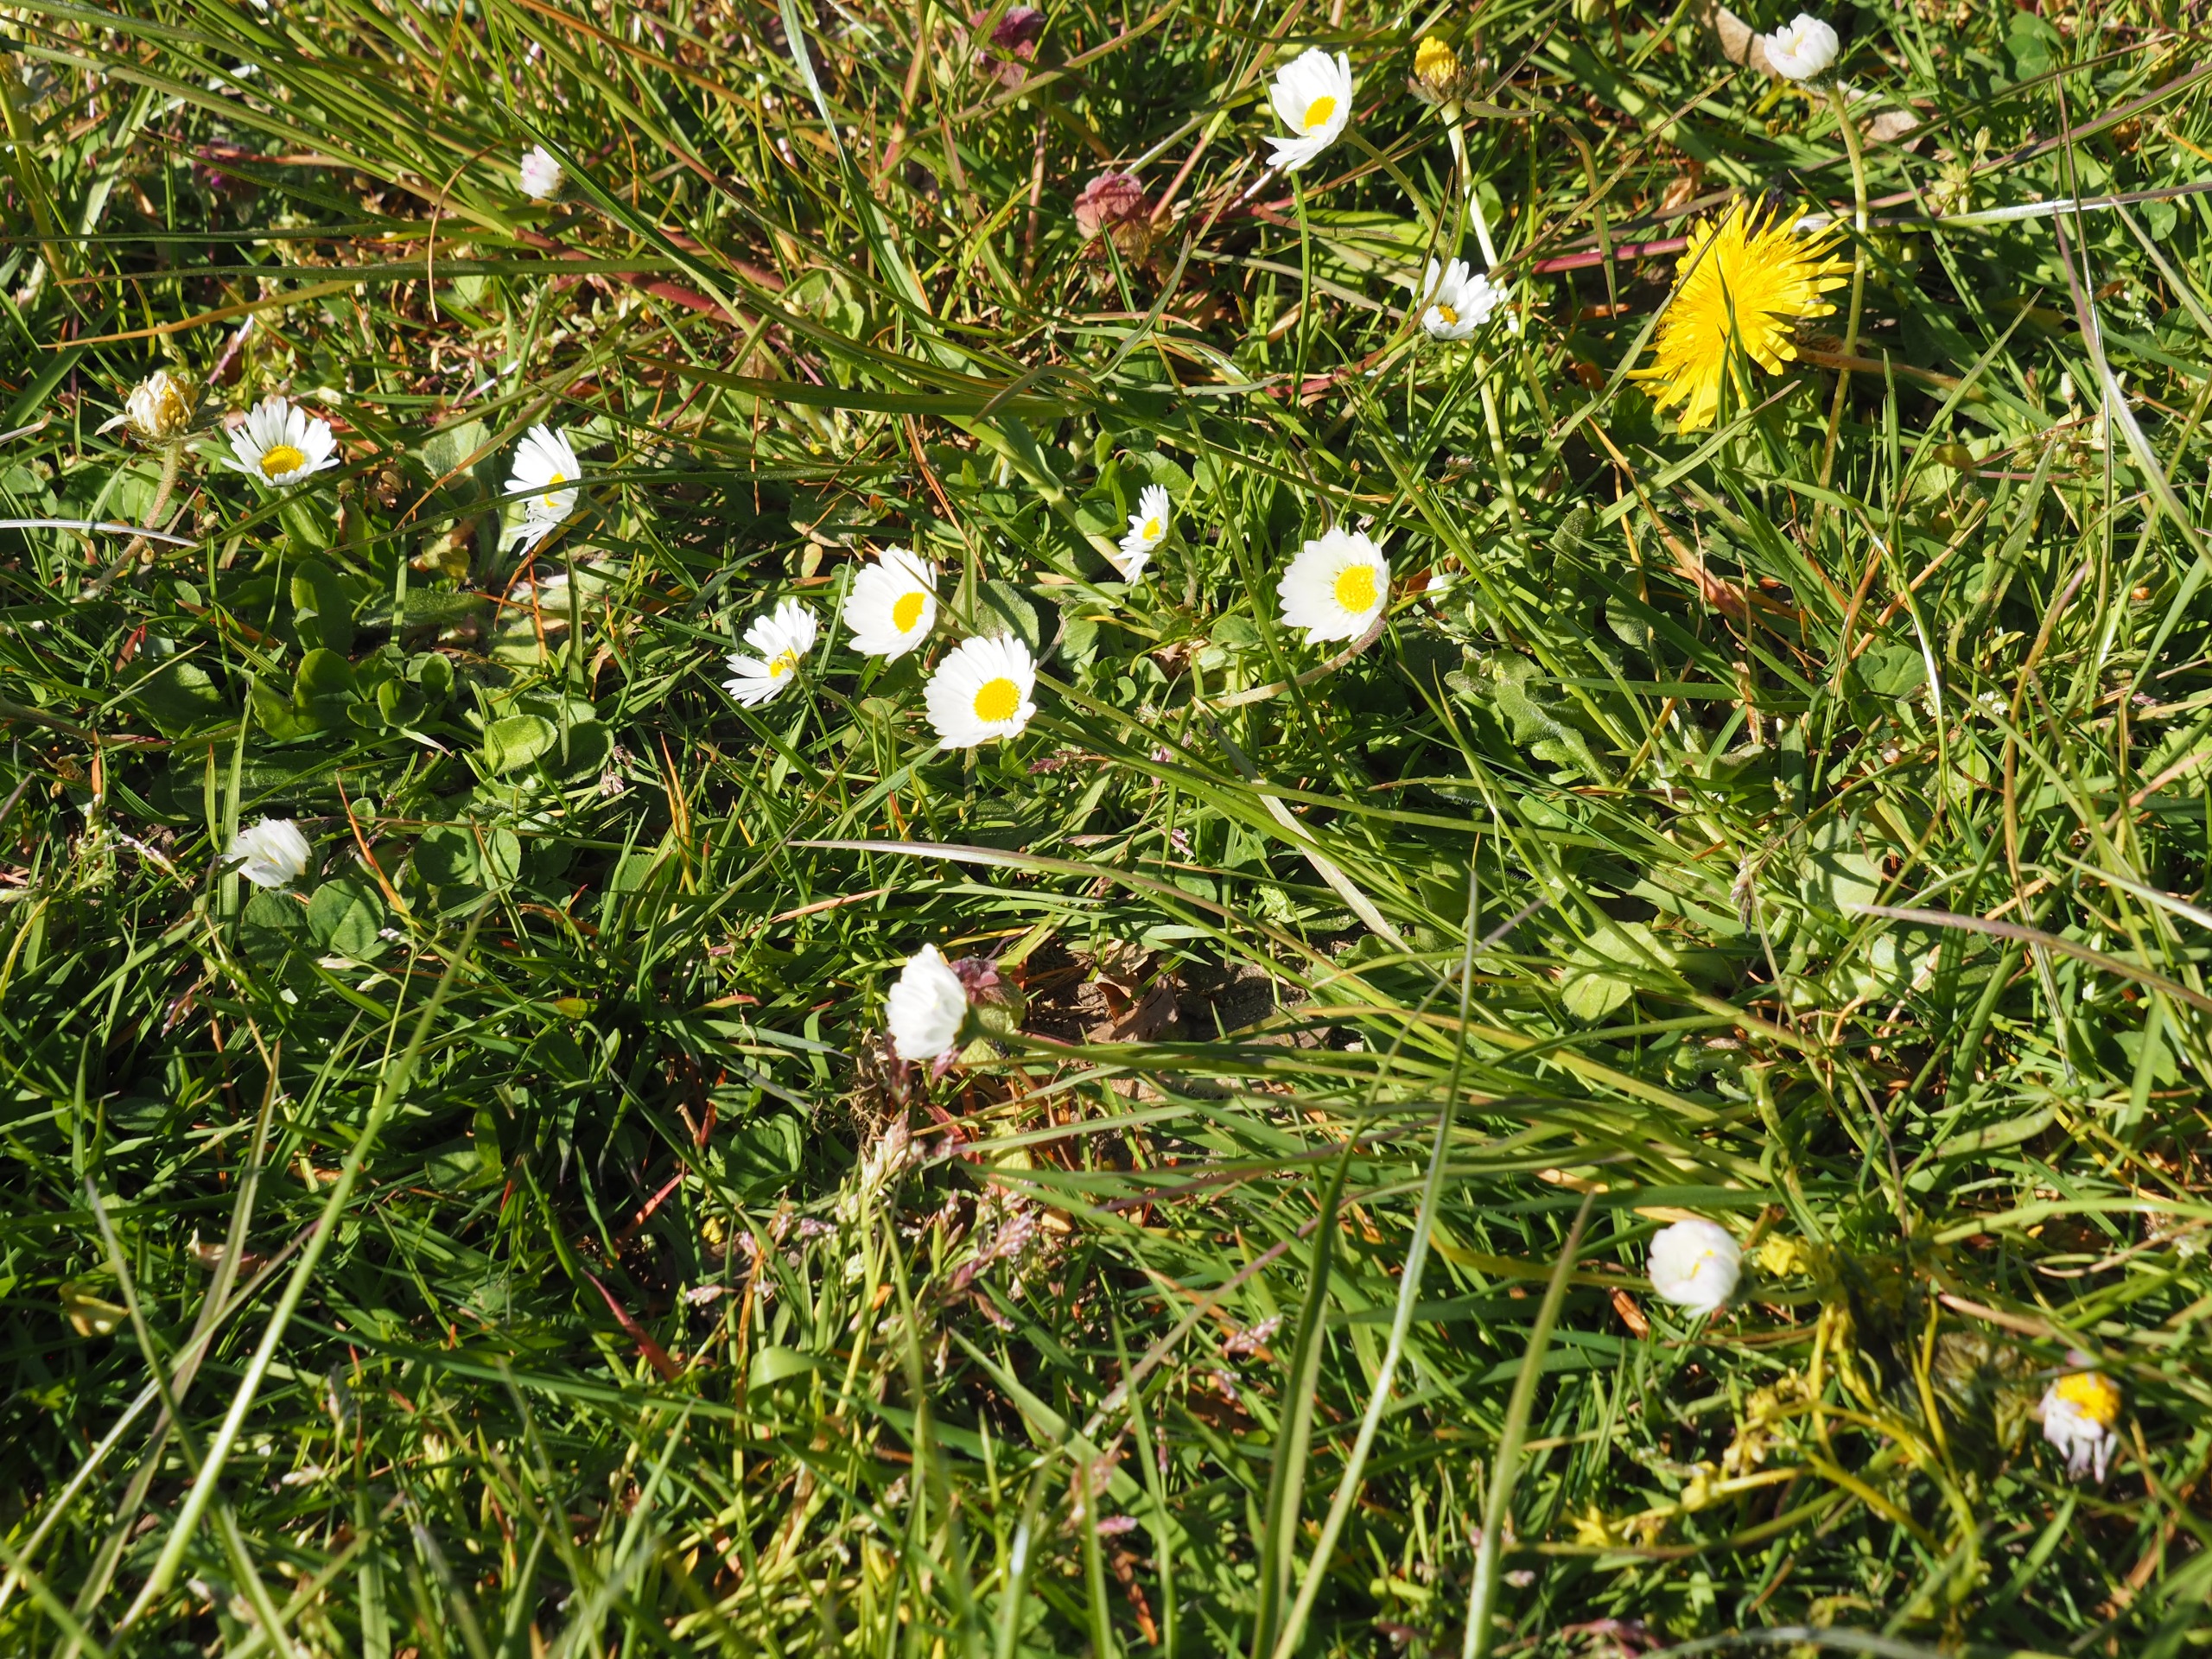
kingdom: Plantae
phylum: Tracheophyta
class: Magnoliopsida
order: Asterales
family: Asteraceae
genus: Bellis
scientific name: Bellis perennis
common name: Tusindfryd
